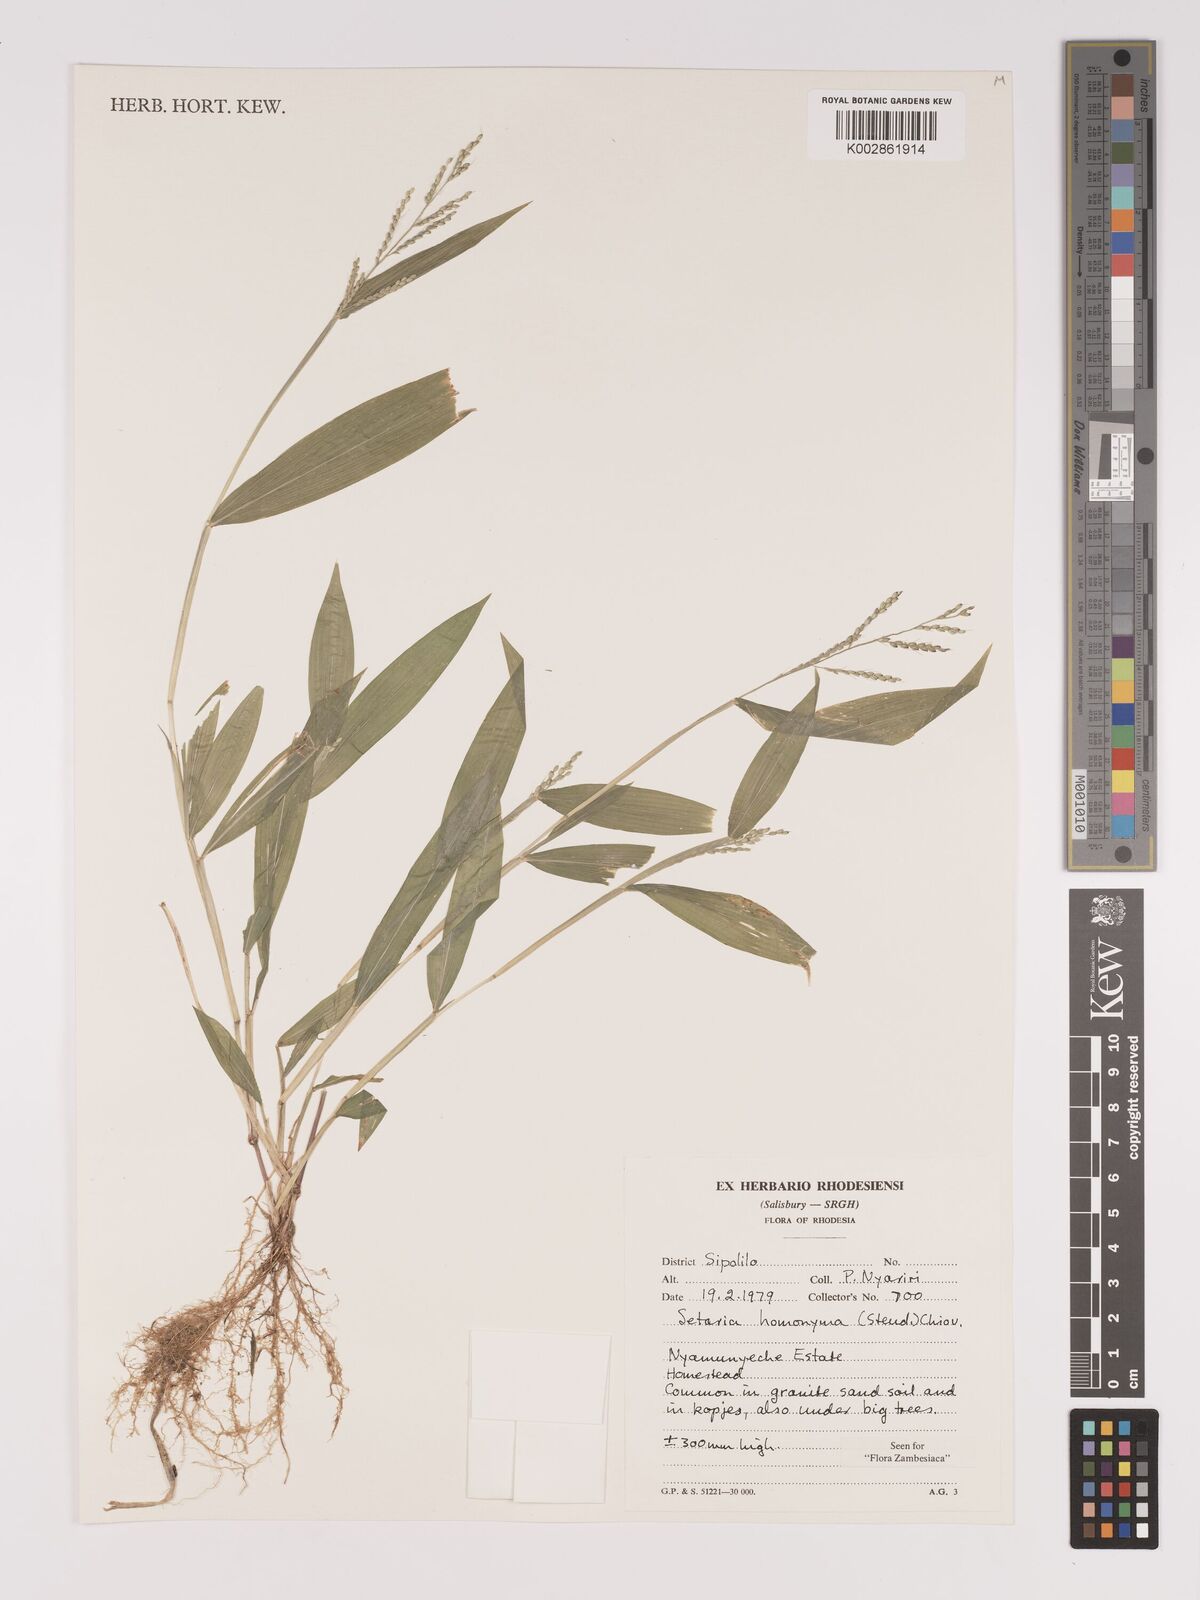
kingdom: Plantae
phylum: Tracheophyta
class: Liliopsida
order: Poales
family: Poaceae
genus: Setaria
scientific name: Setaria homonyma
